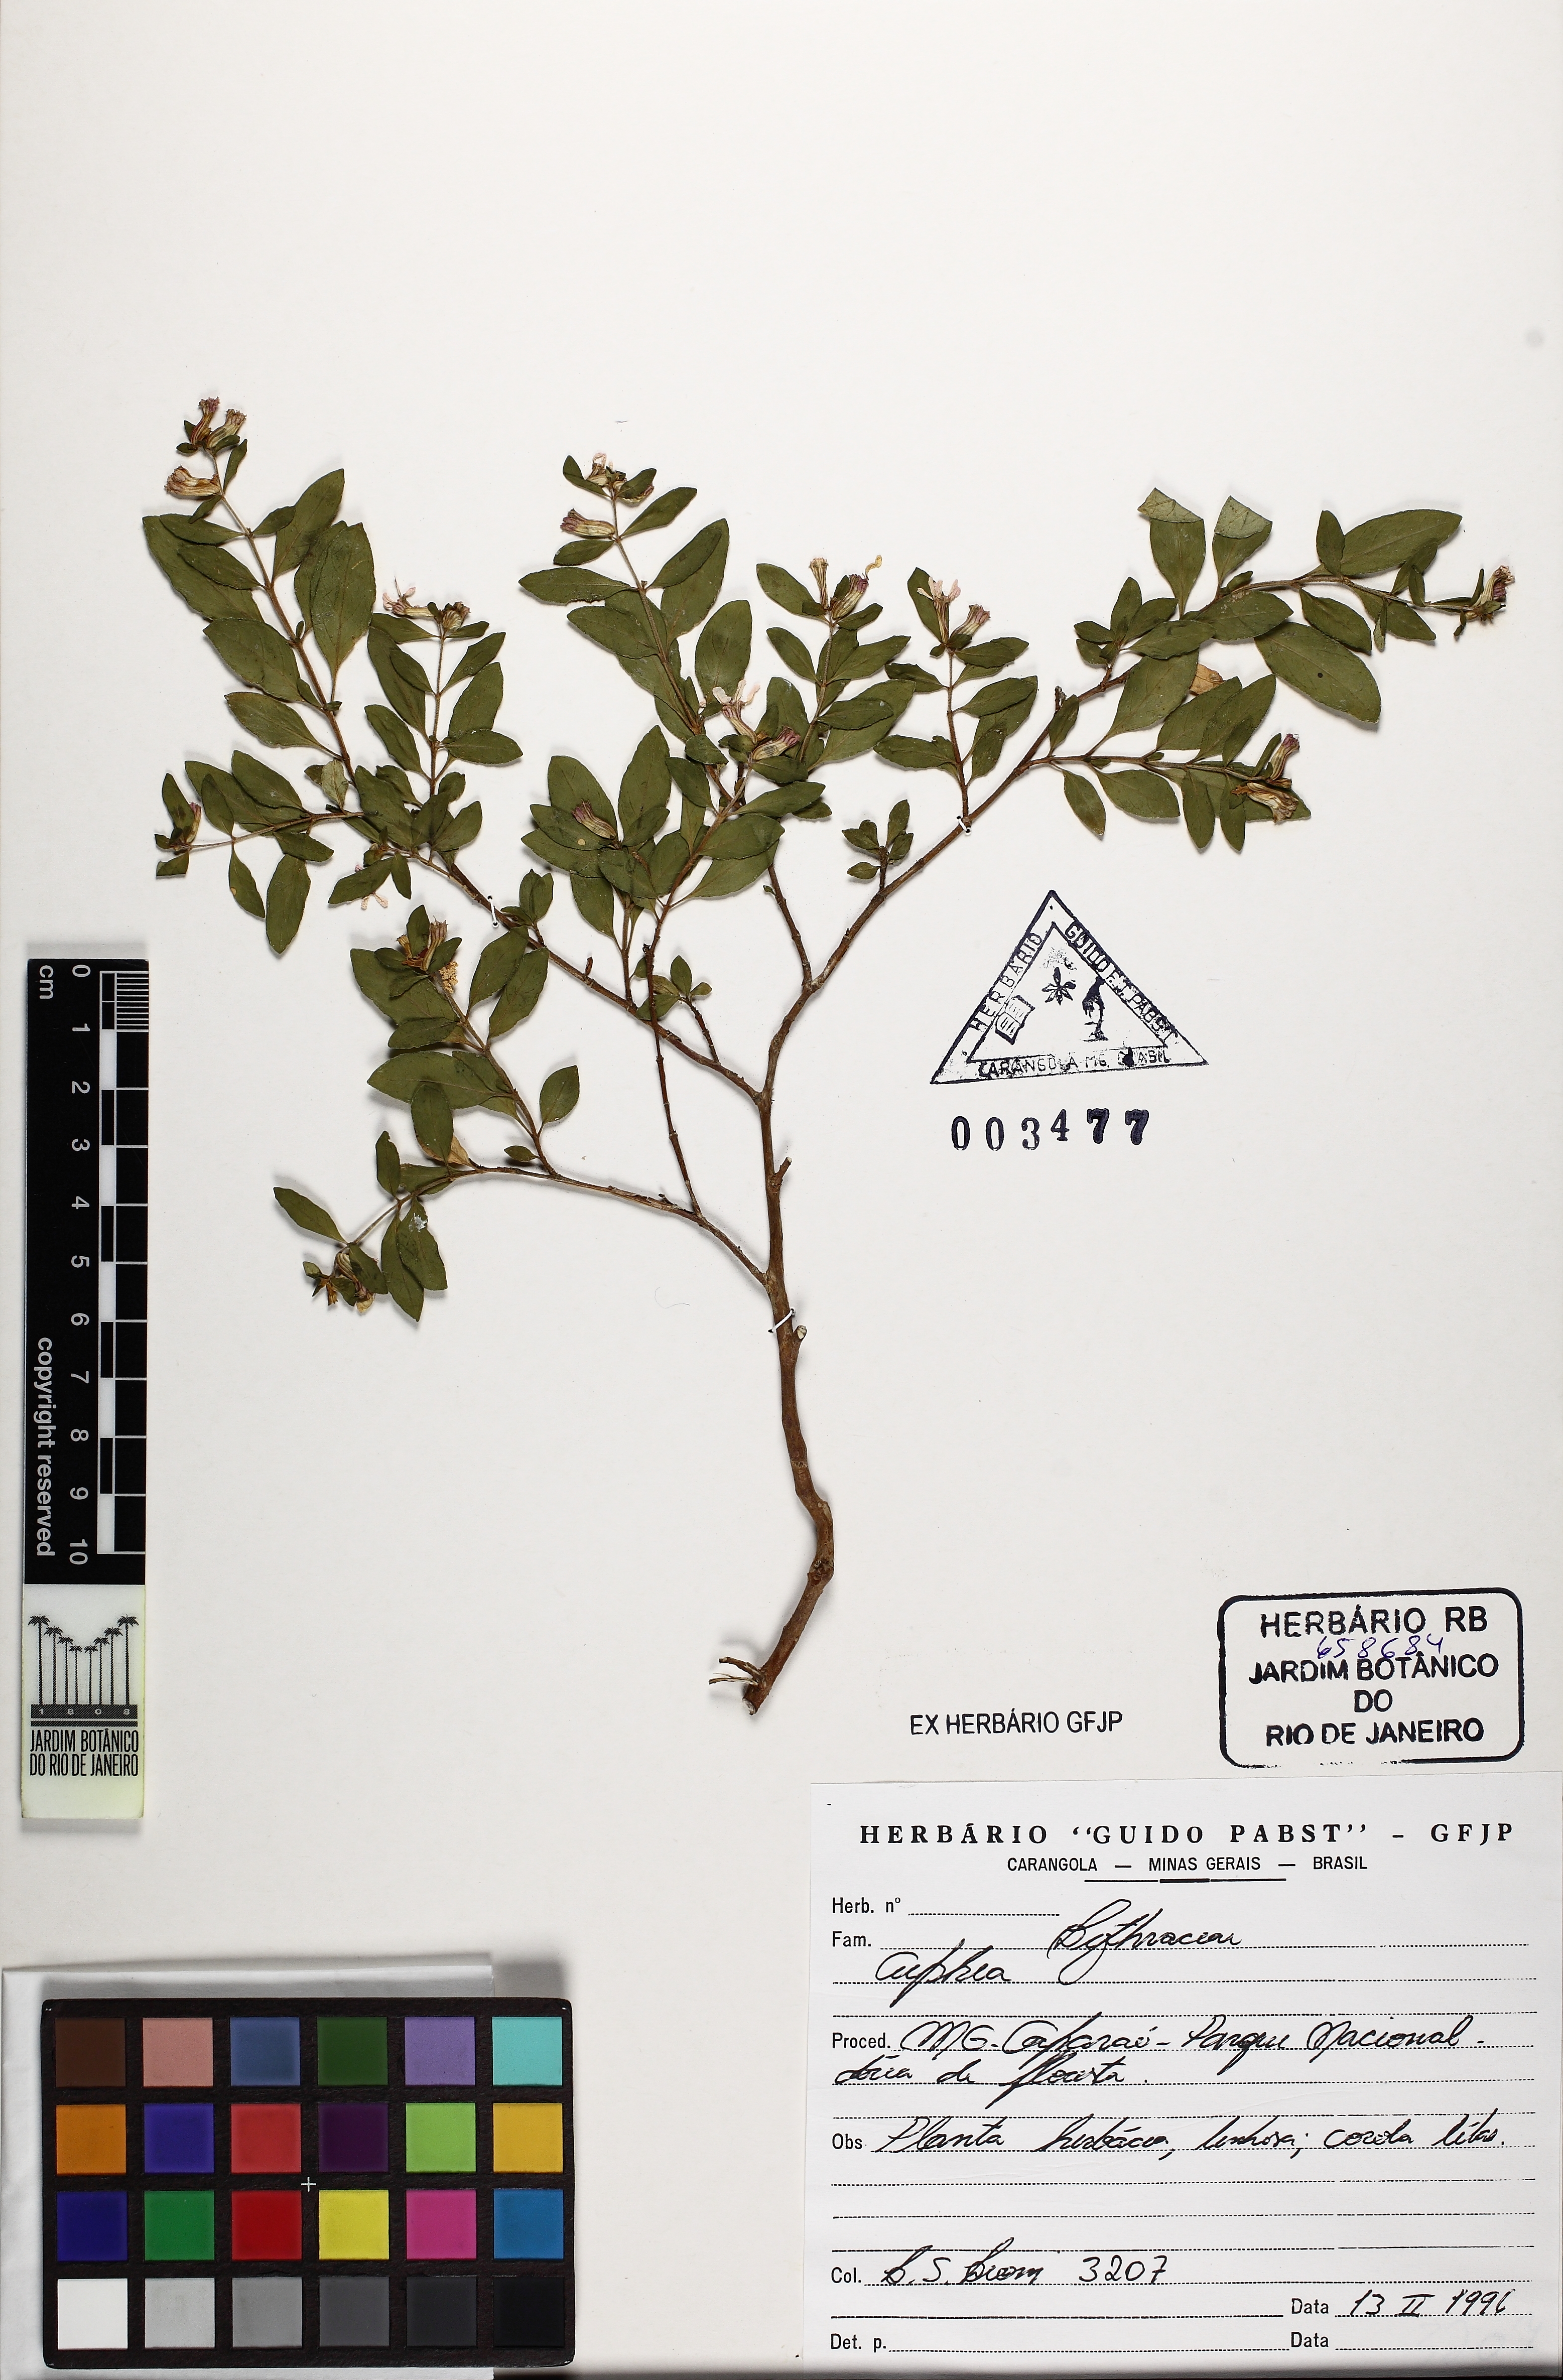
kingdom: Plantae
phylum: Tracheophyta
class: Magnoliopsida
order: Myrtales
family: Lythraceae
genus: Cuphea
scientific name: Cuphea
